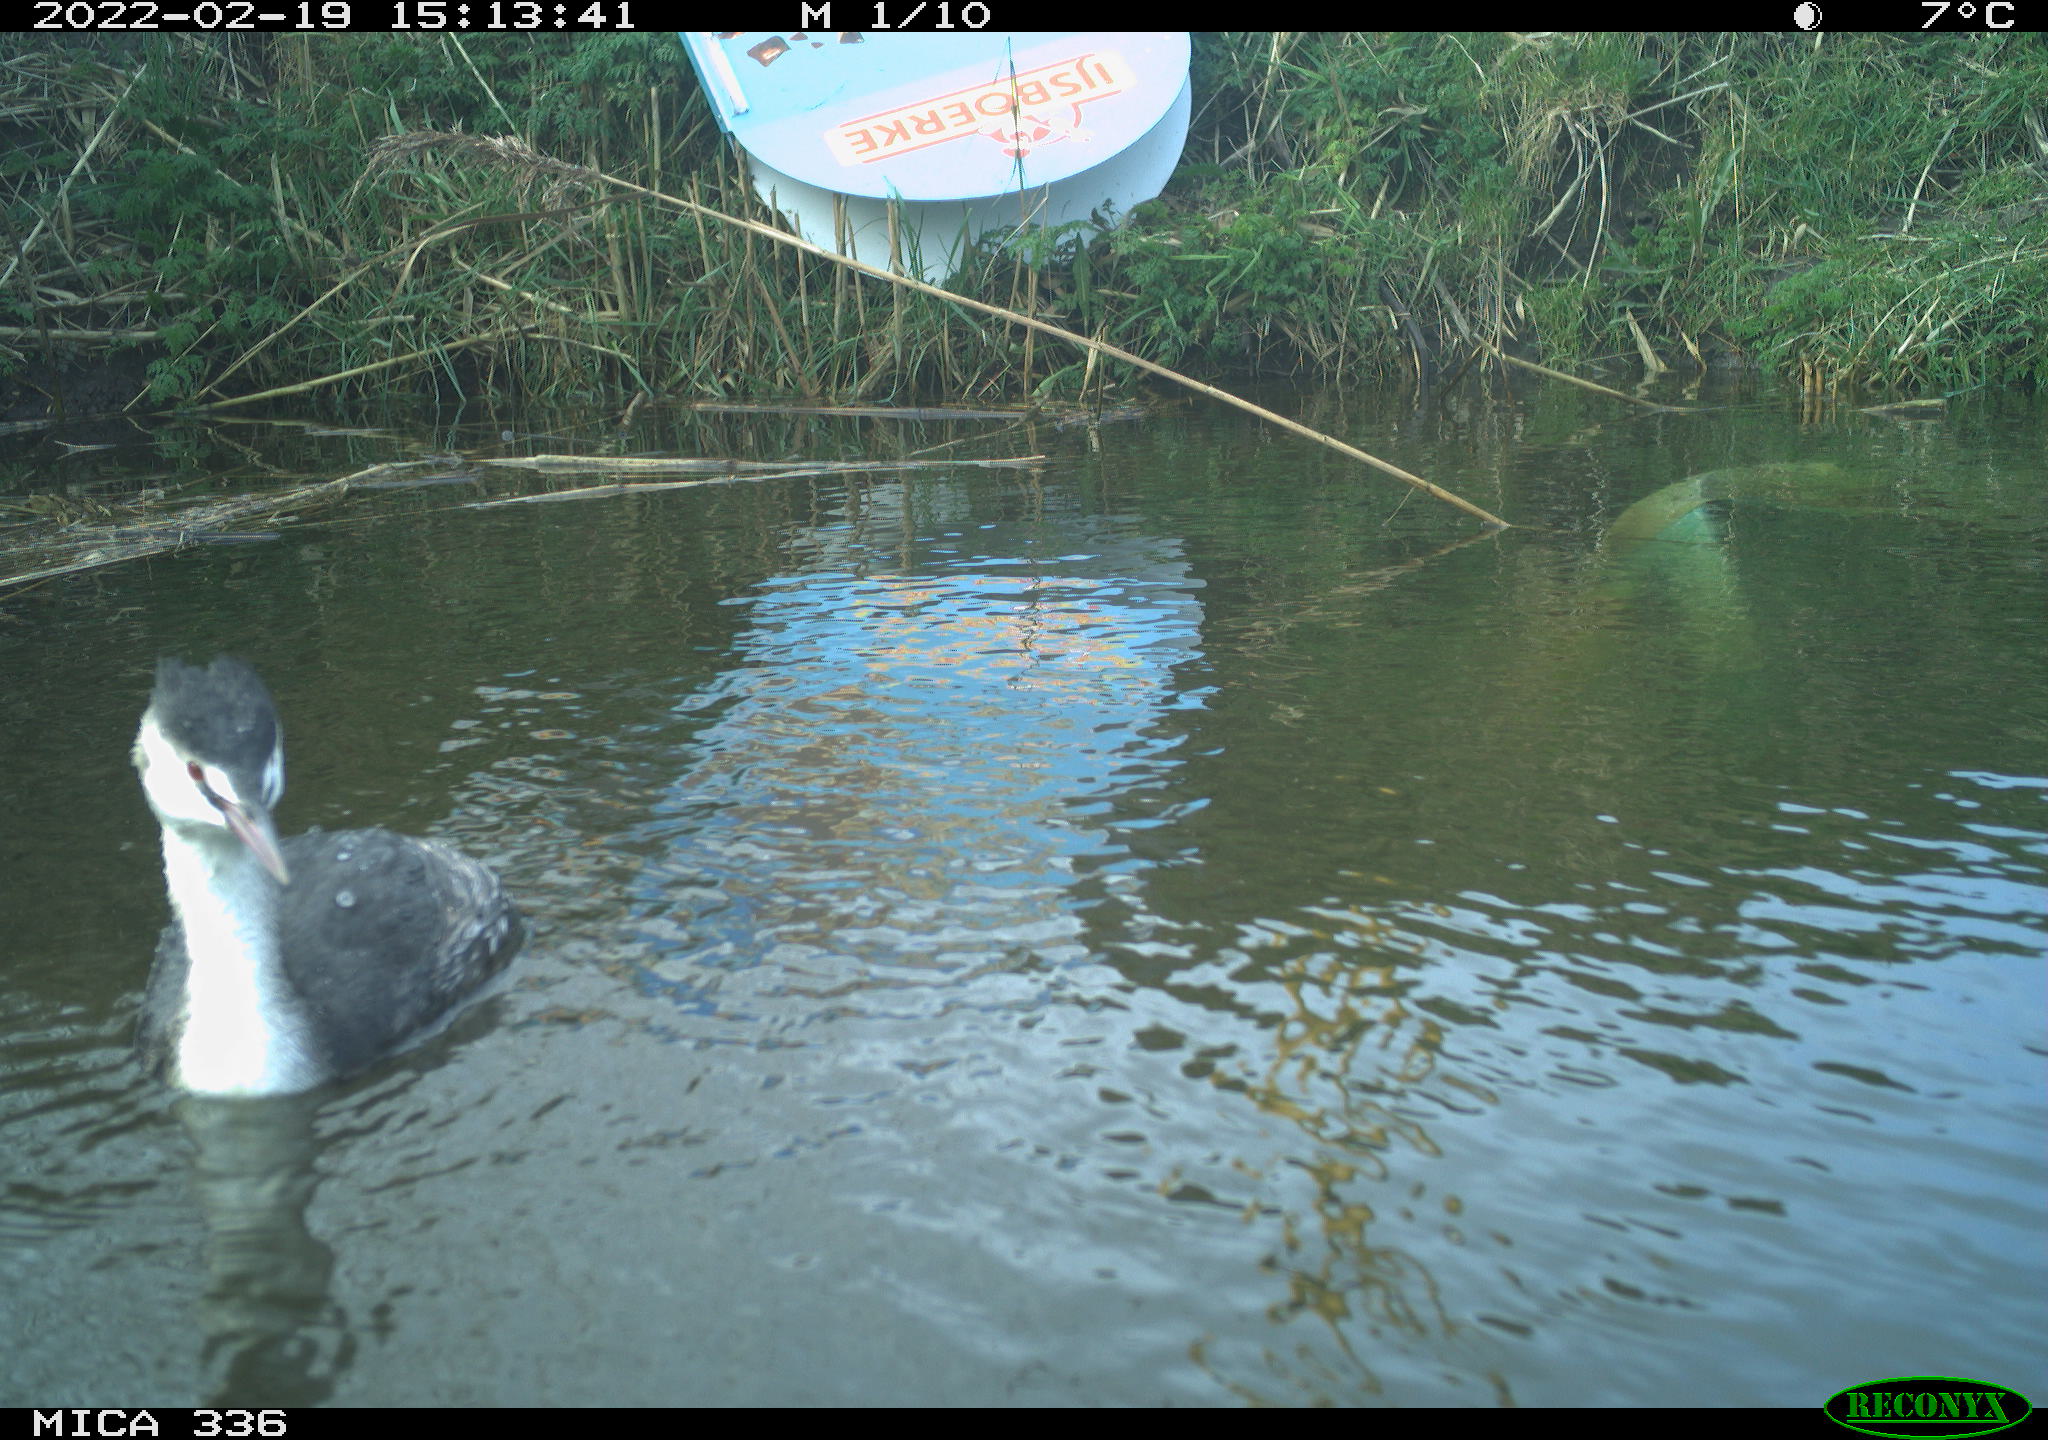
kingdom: Animalia
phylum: Chordata
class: Aves
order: Podicipediformes
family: Podicipedidae
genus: Podiceps
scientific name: Podiceps cristatus
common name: Great crested grebe
